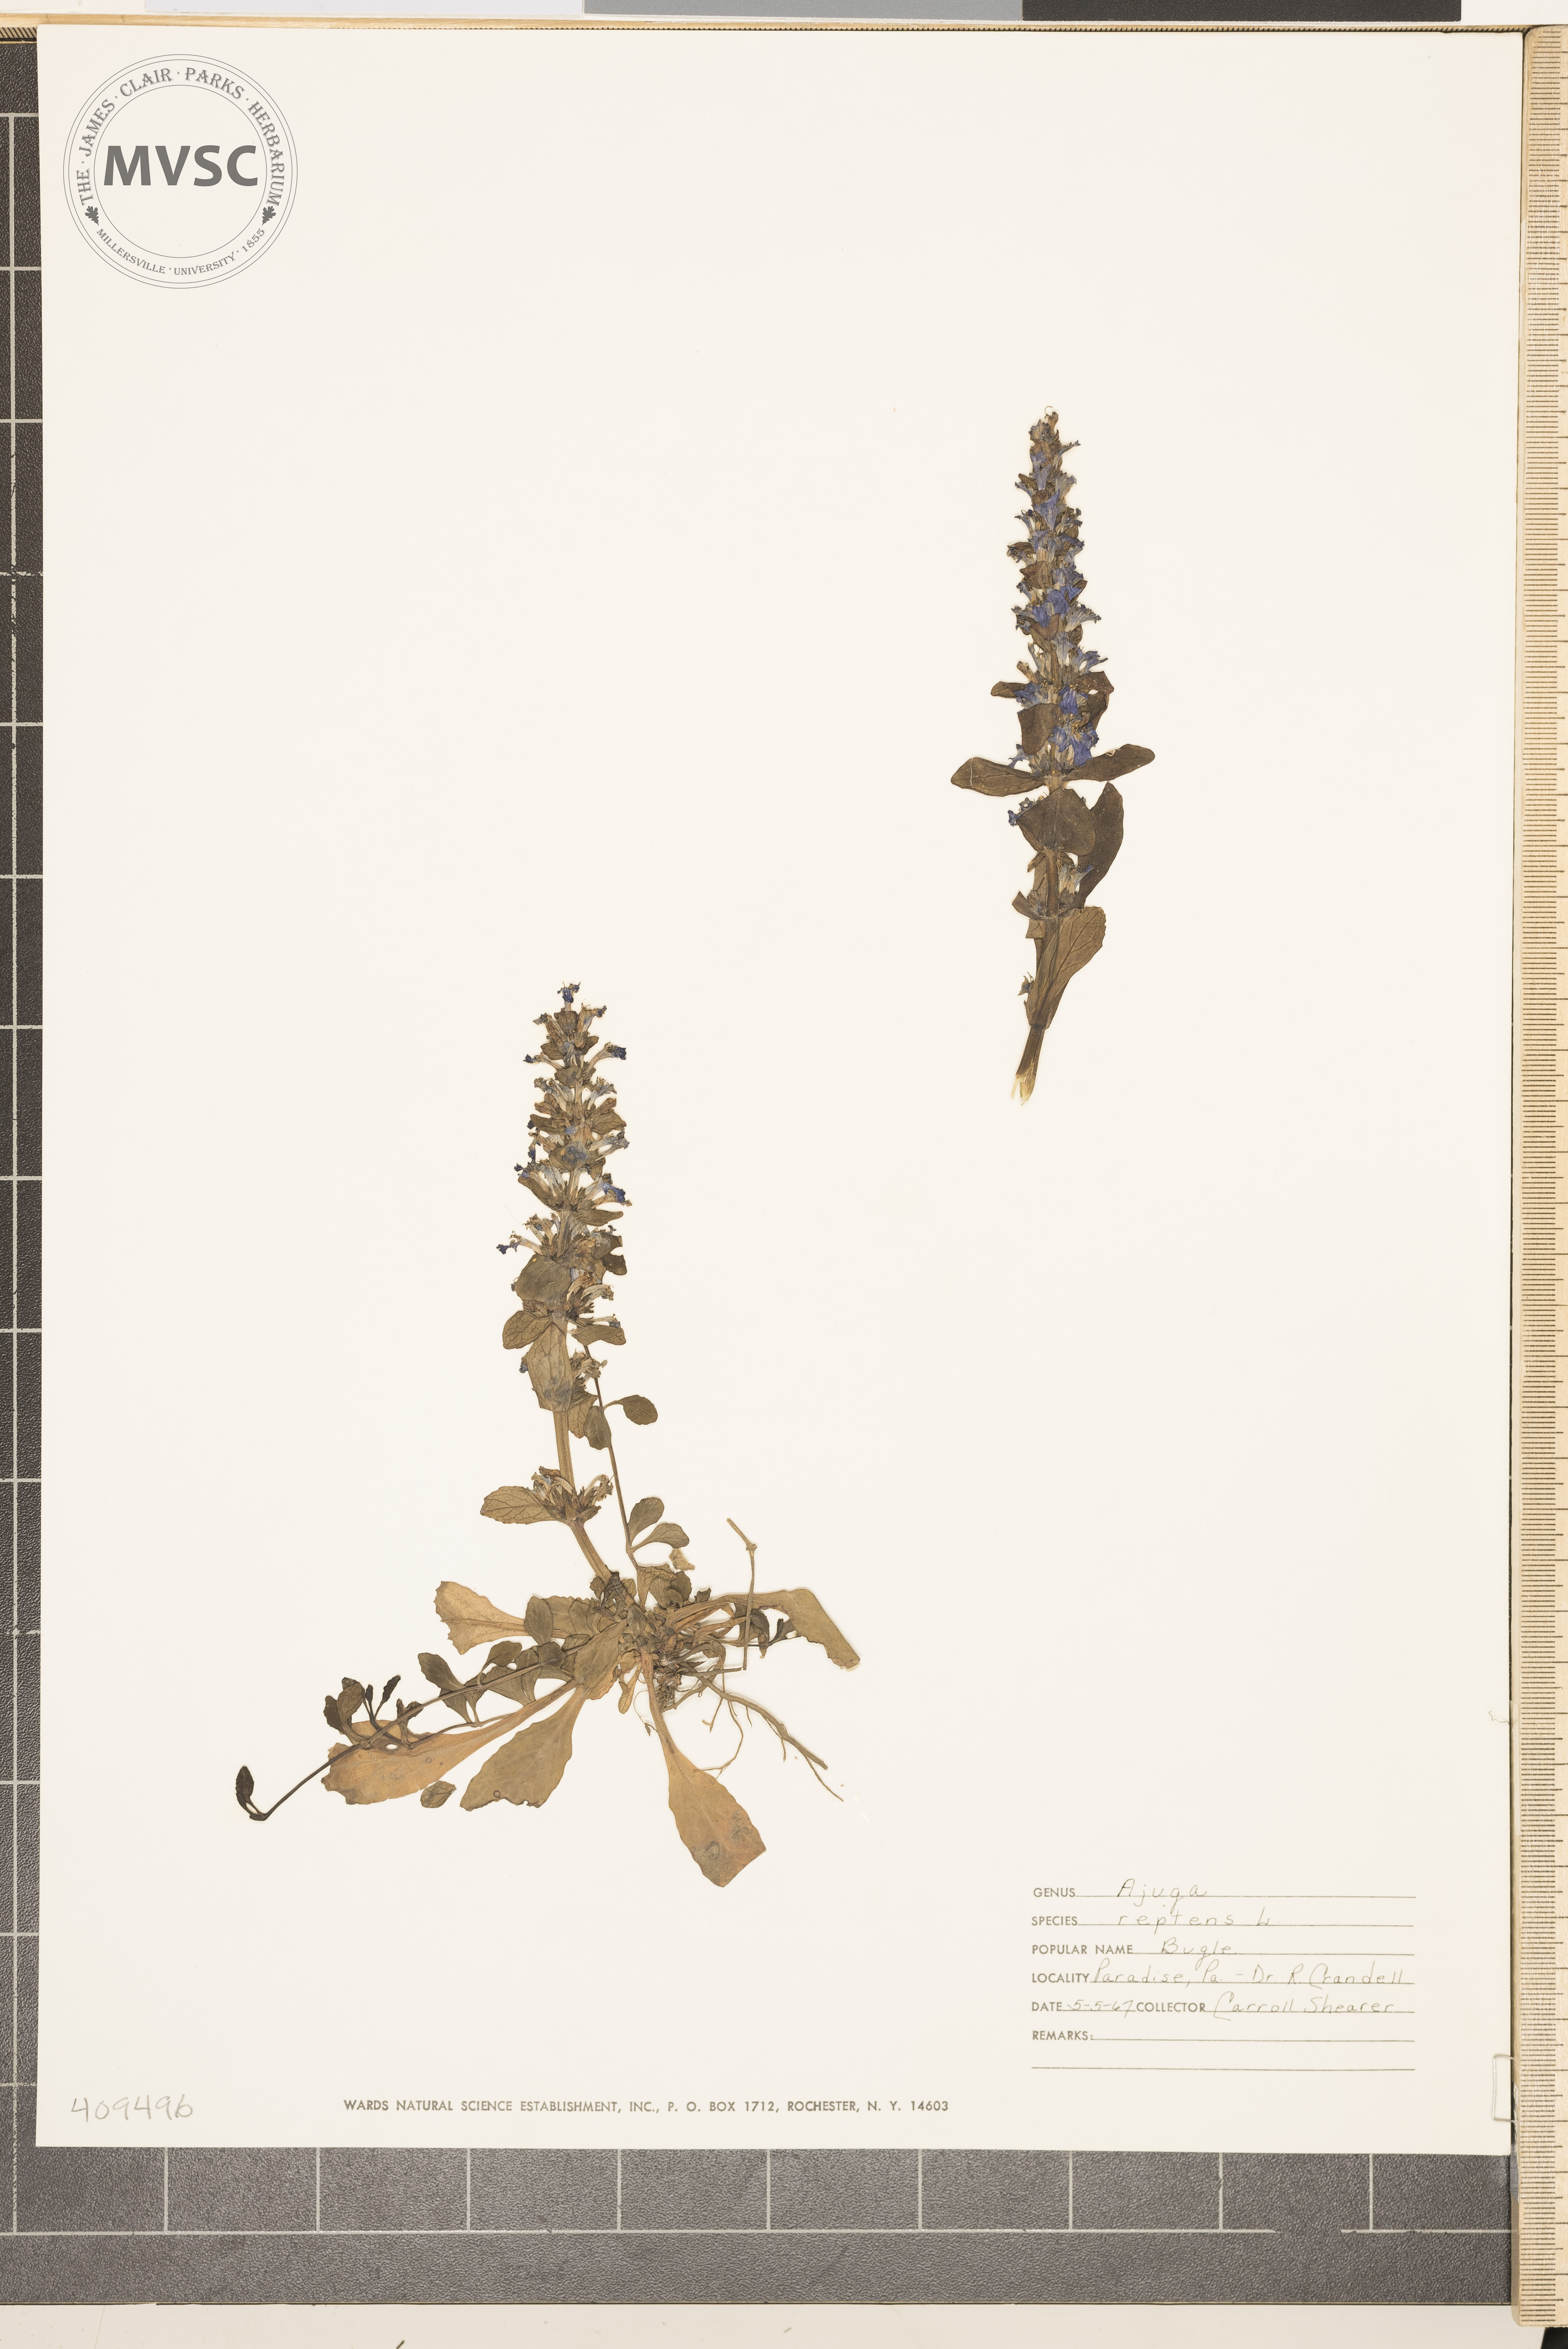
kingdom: Plantae
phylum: Tracheophyta
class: Magnoliopsida
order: Lamiales
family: Lamiaceae
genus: Ajuga
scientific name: Ajuga reptans
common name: Bugle
